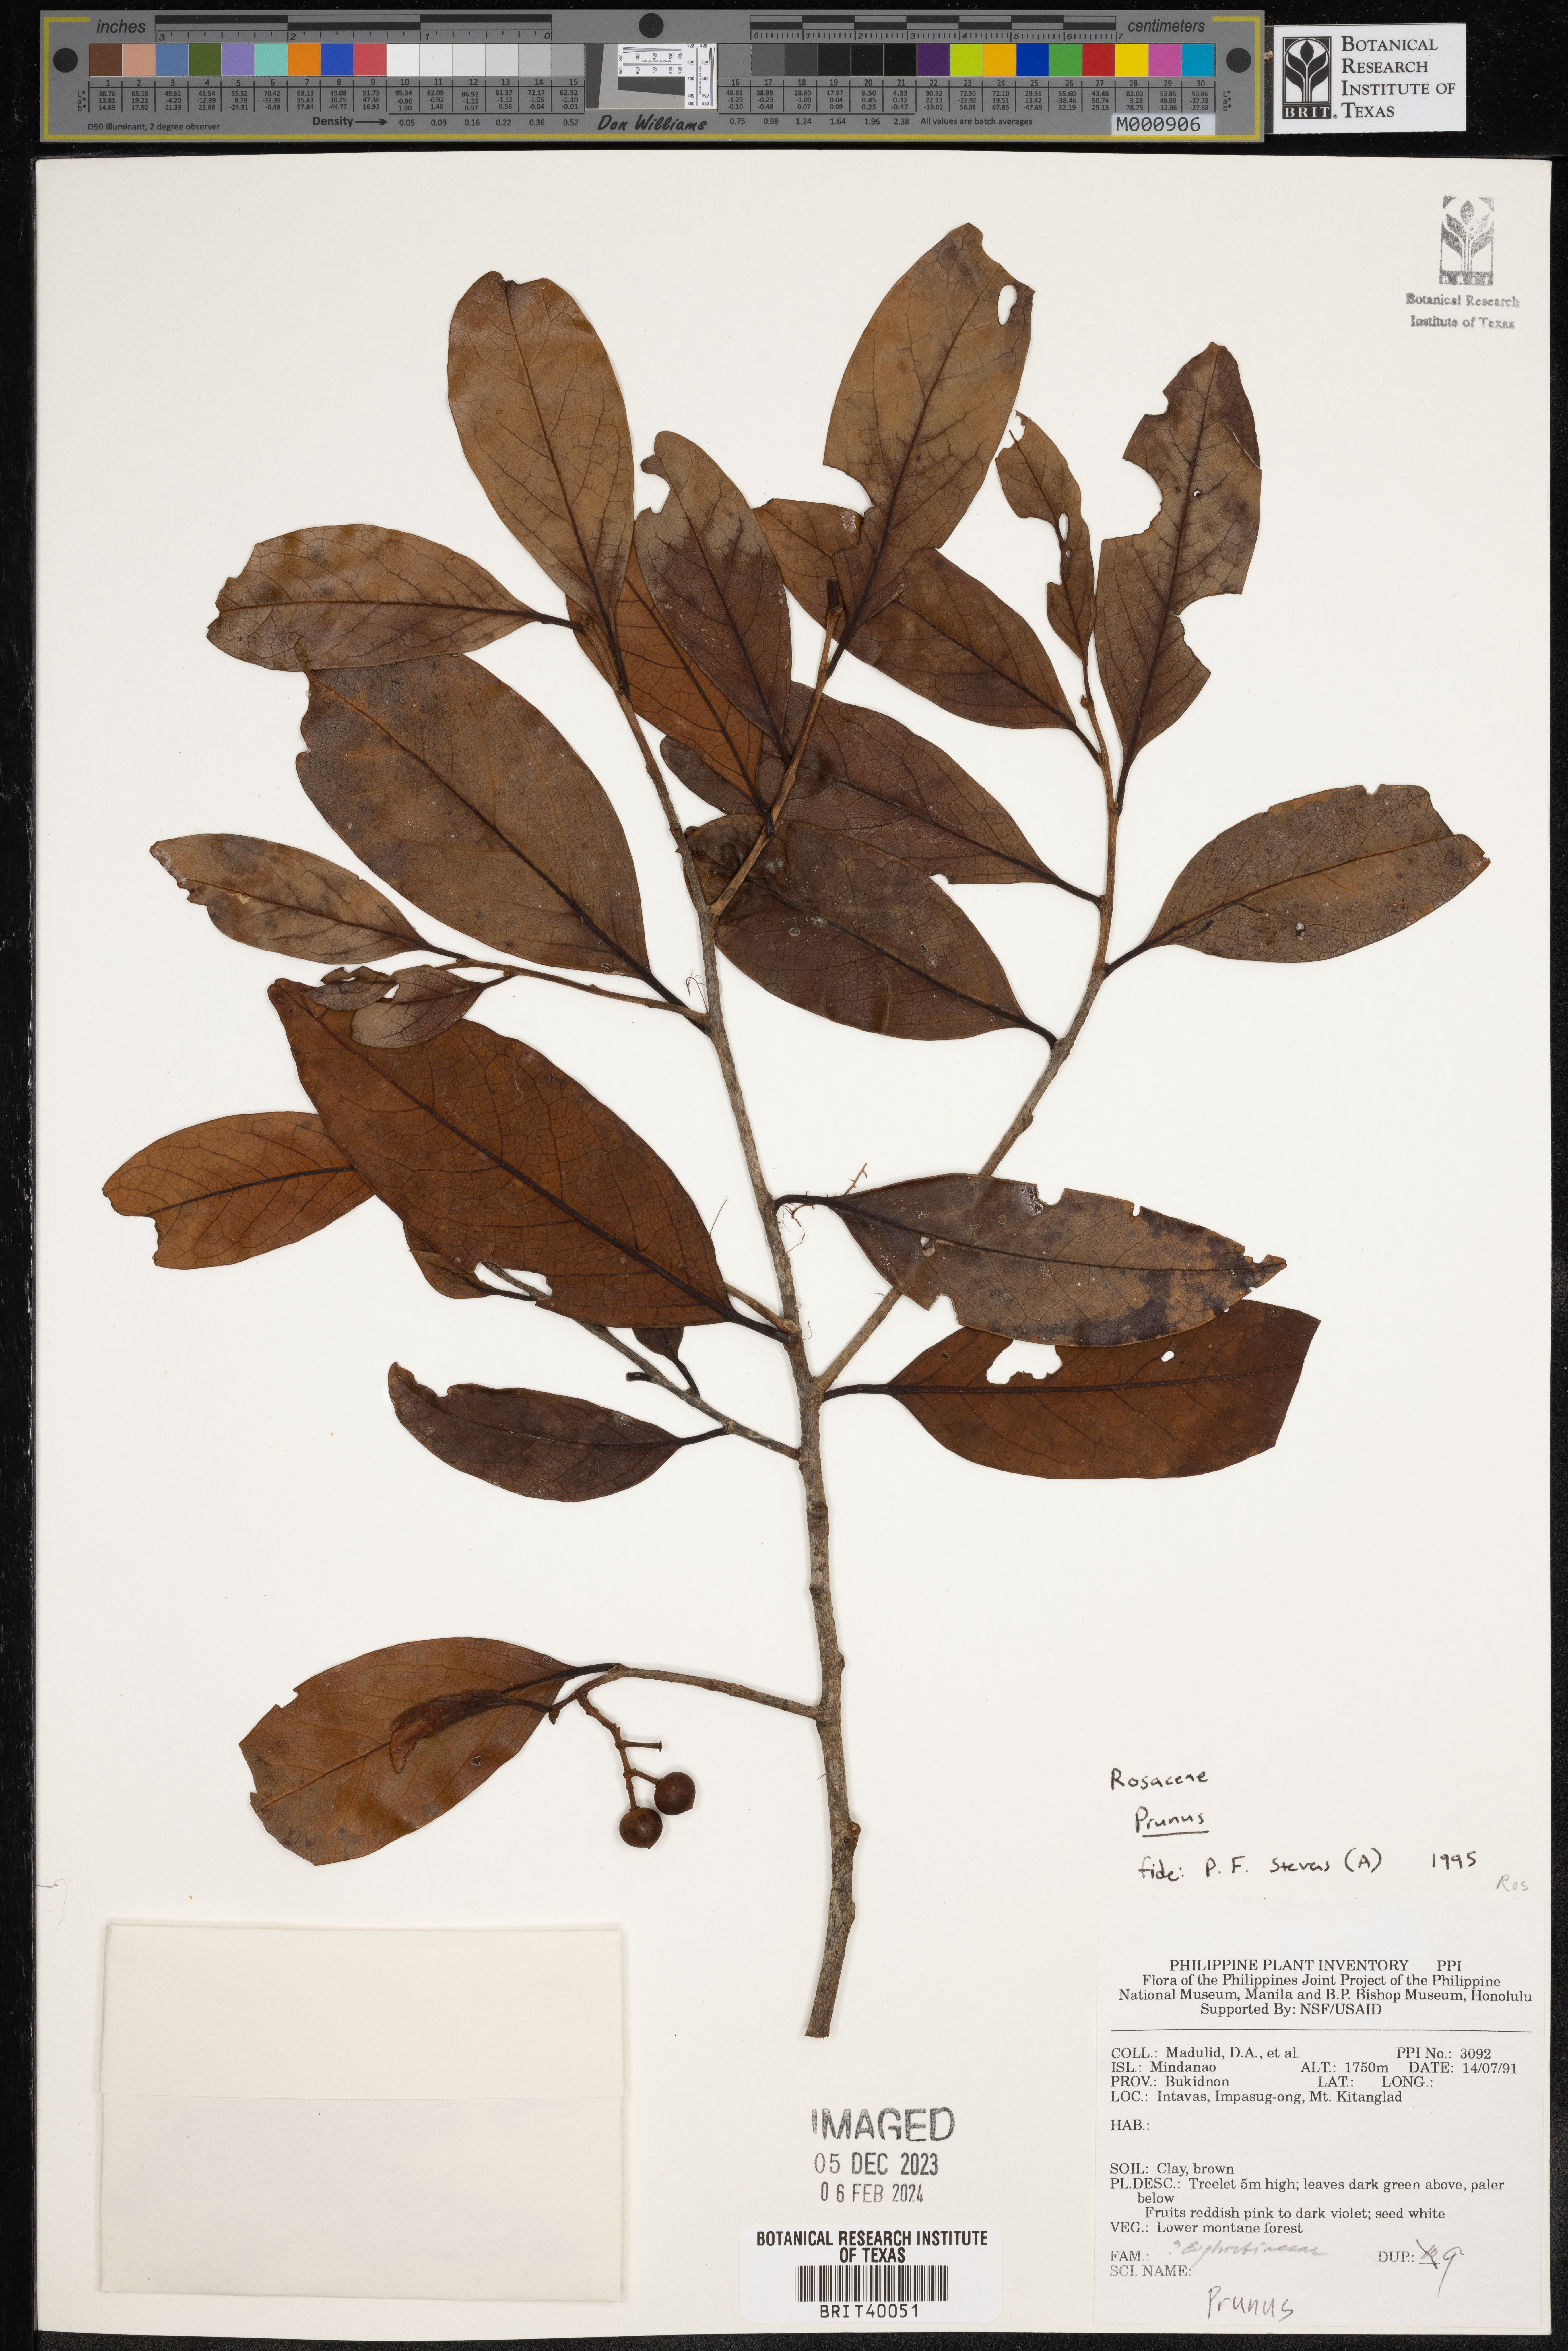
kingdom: Plantae
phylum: Tracheophyta
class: Magnoliopsida
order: Rosales
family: Rosaceae
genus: Prunus
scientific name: Prunus
